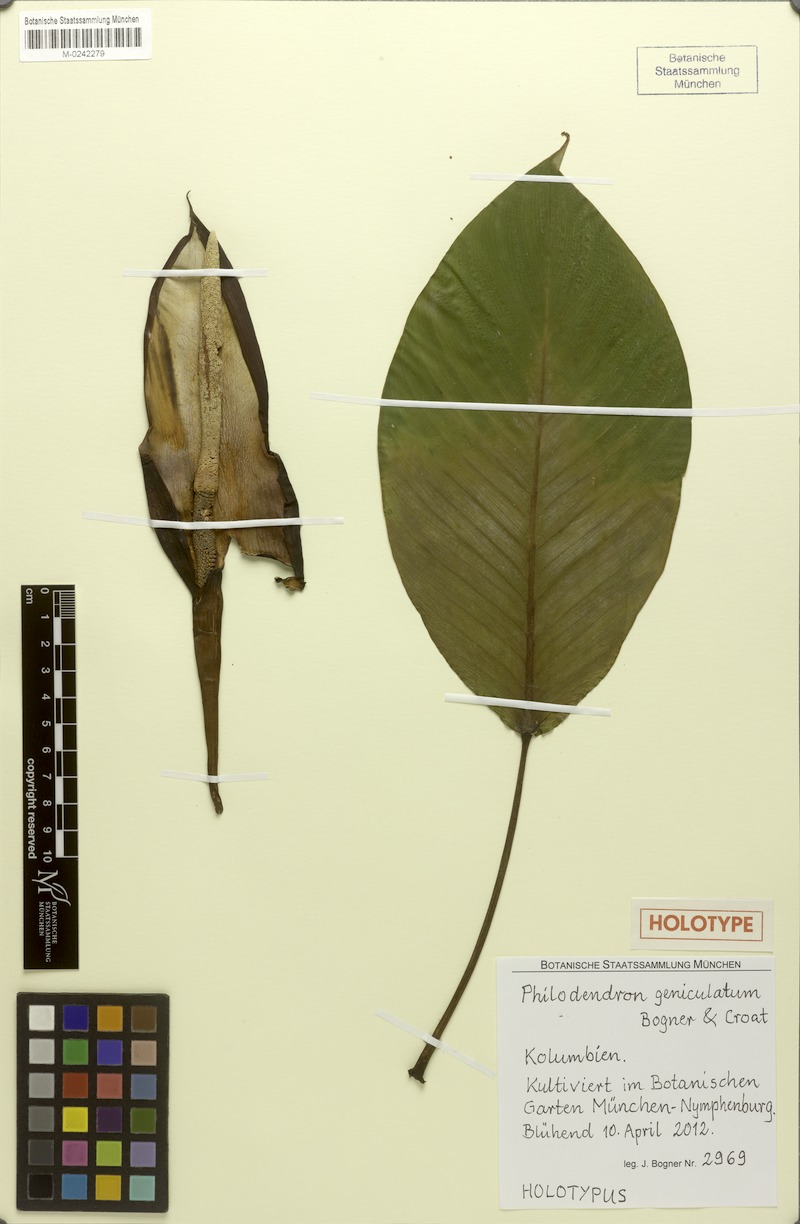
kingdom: Plantae
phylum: Tracheophyta
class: Liliopsida
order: Alismatales
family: Araceae
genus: Philodendron
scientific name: Philodendron geniculatum
